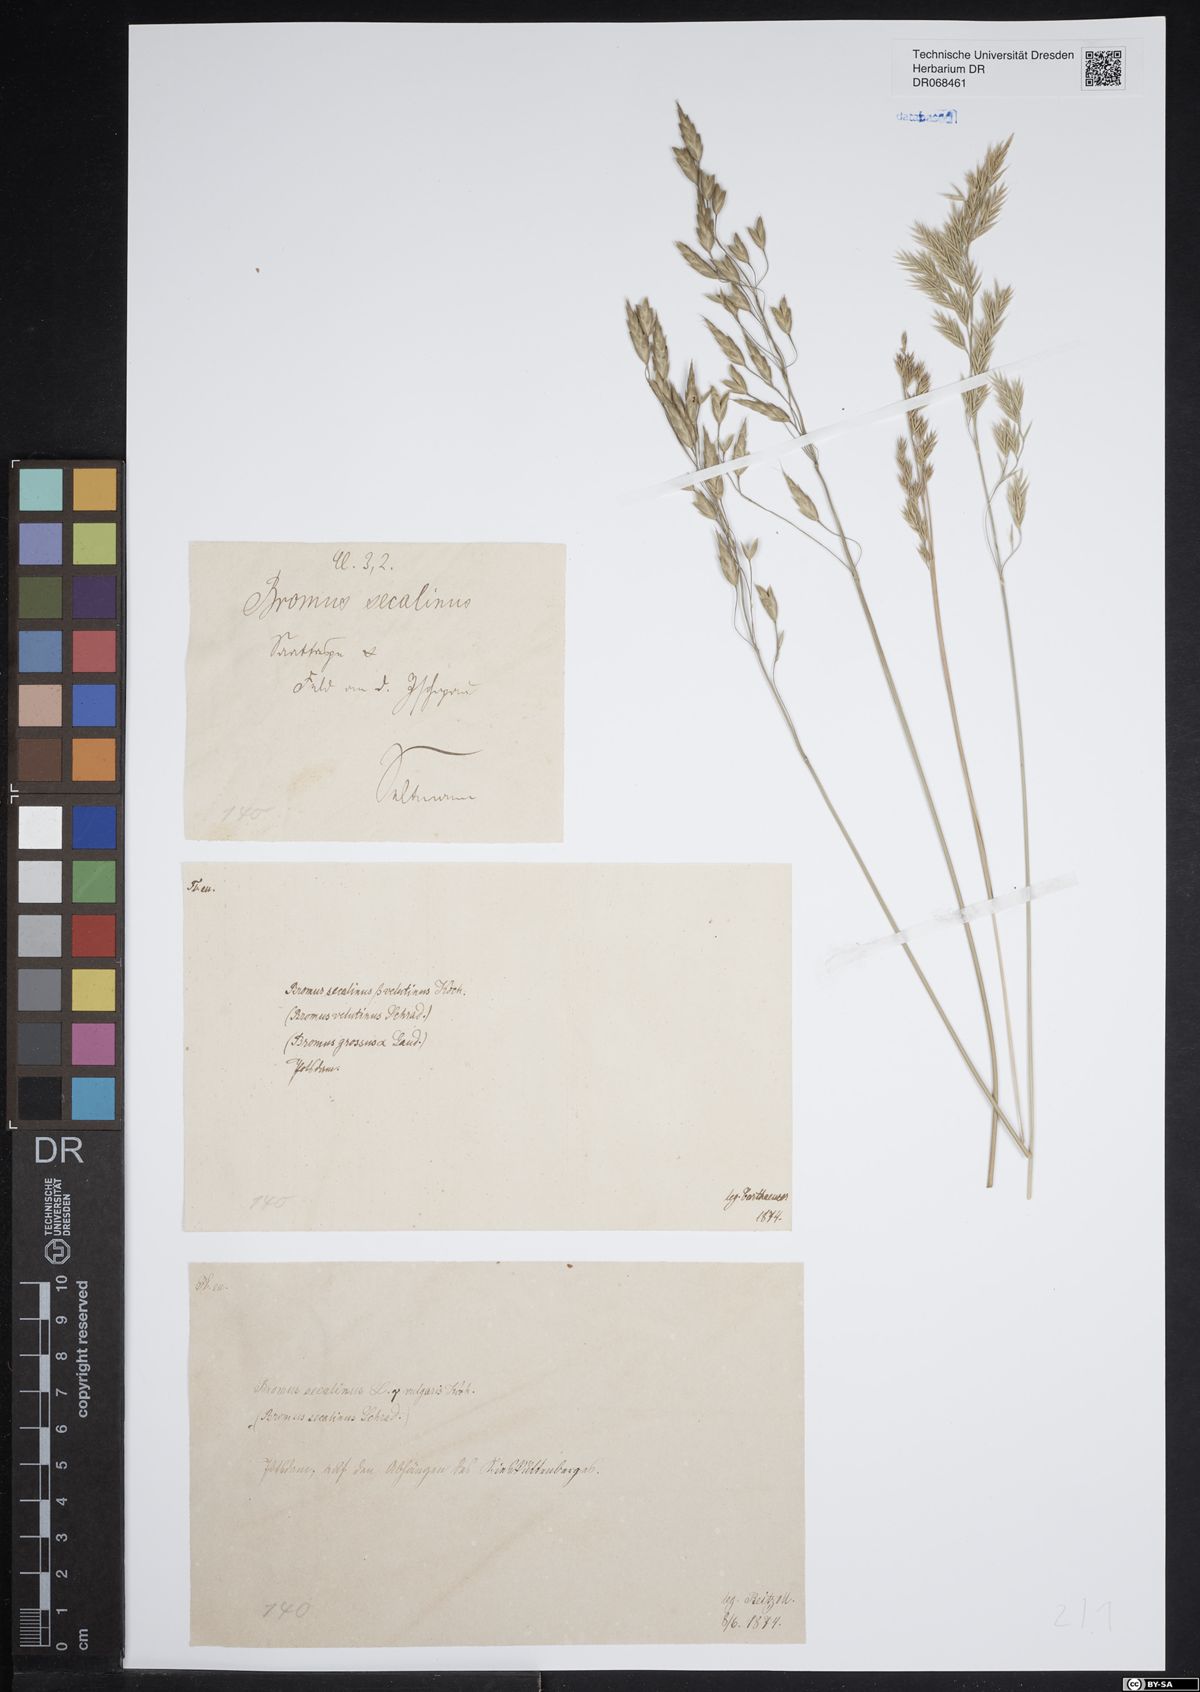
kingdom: Plantae
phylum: Tracheophyta
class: Liliopsida
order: Poales
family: Poaceae
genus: Bromus
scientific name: Bromus secalinus
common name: Rye brome
